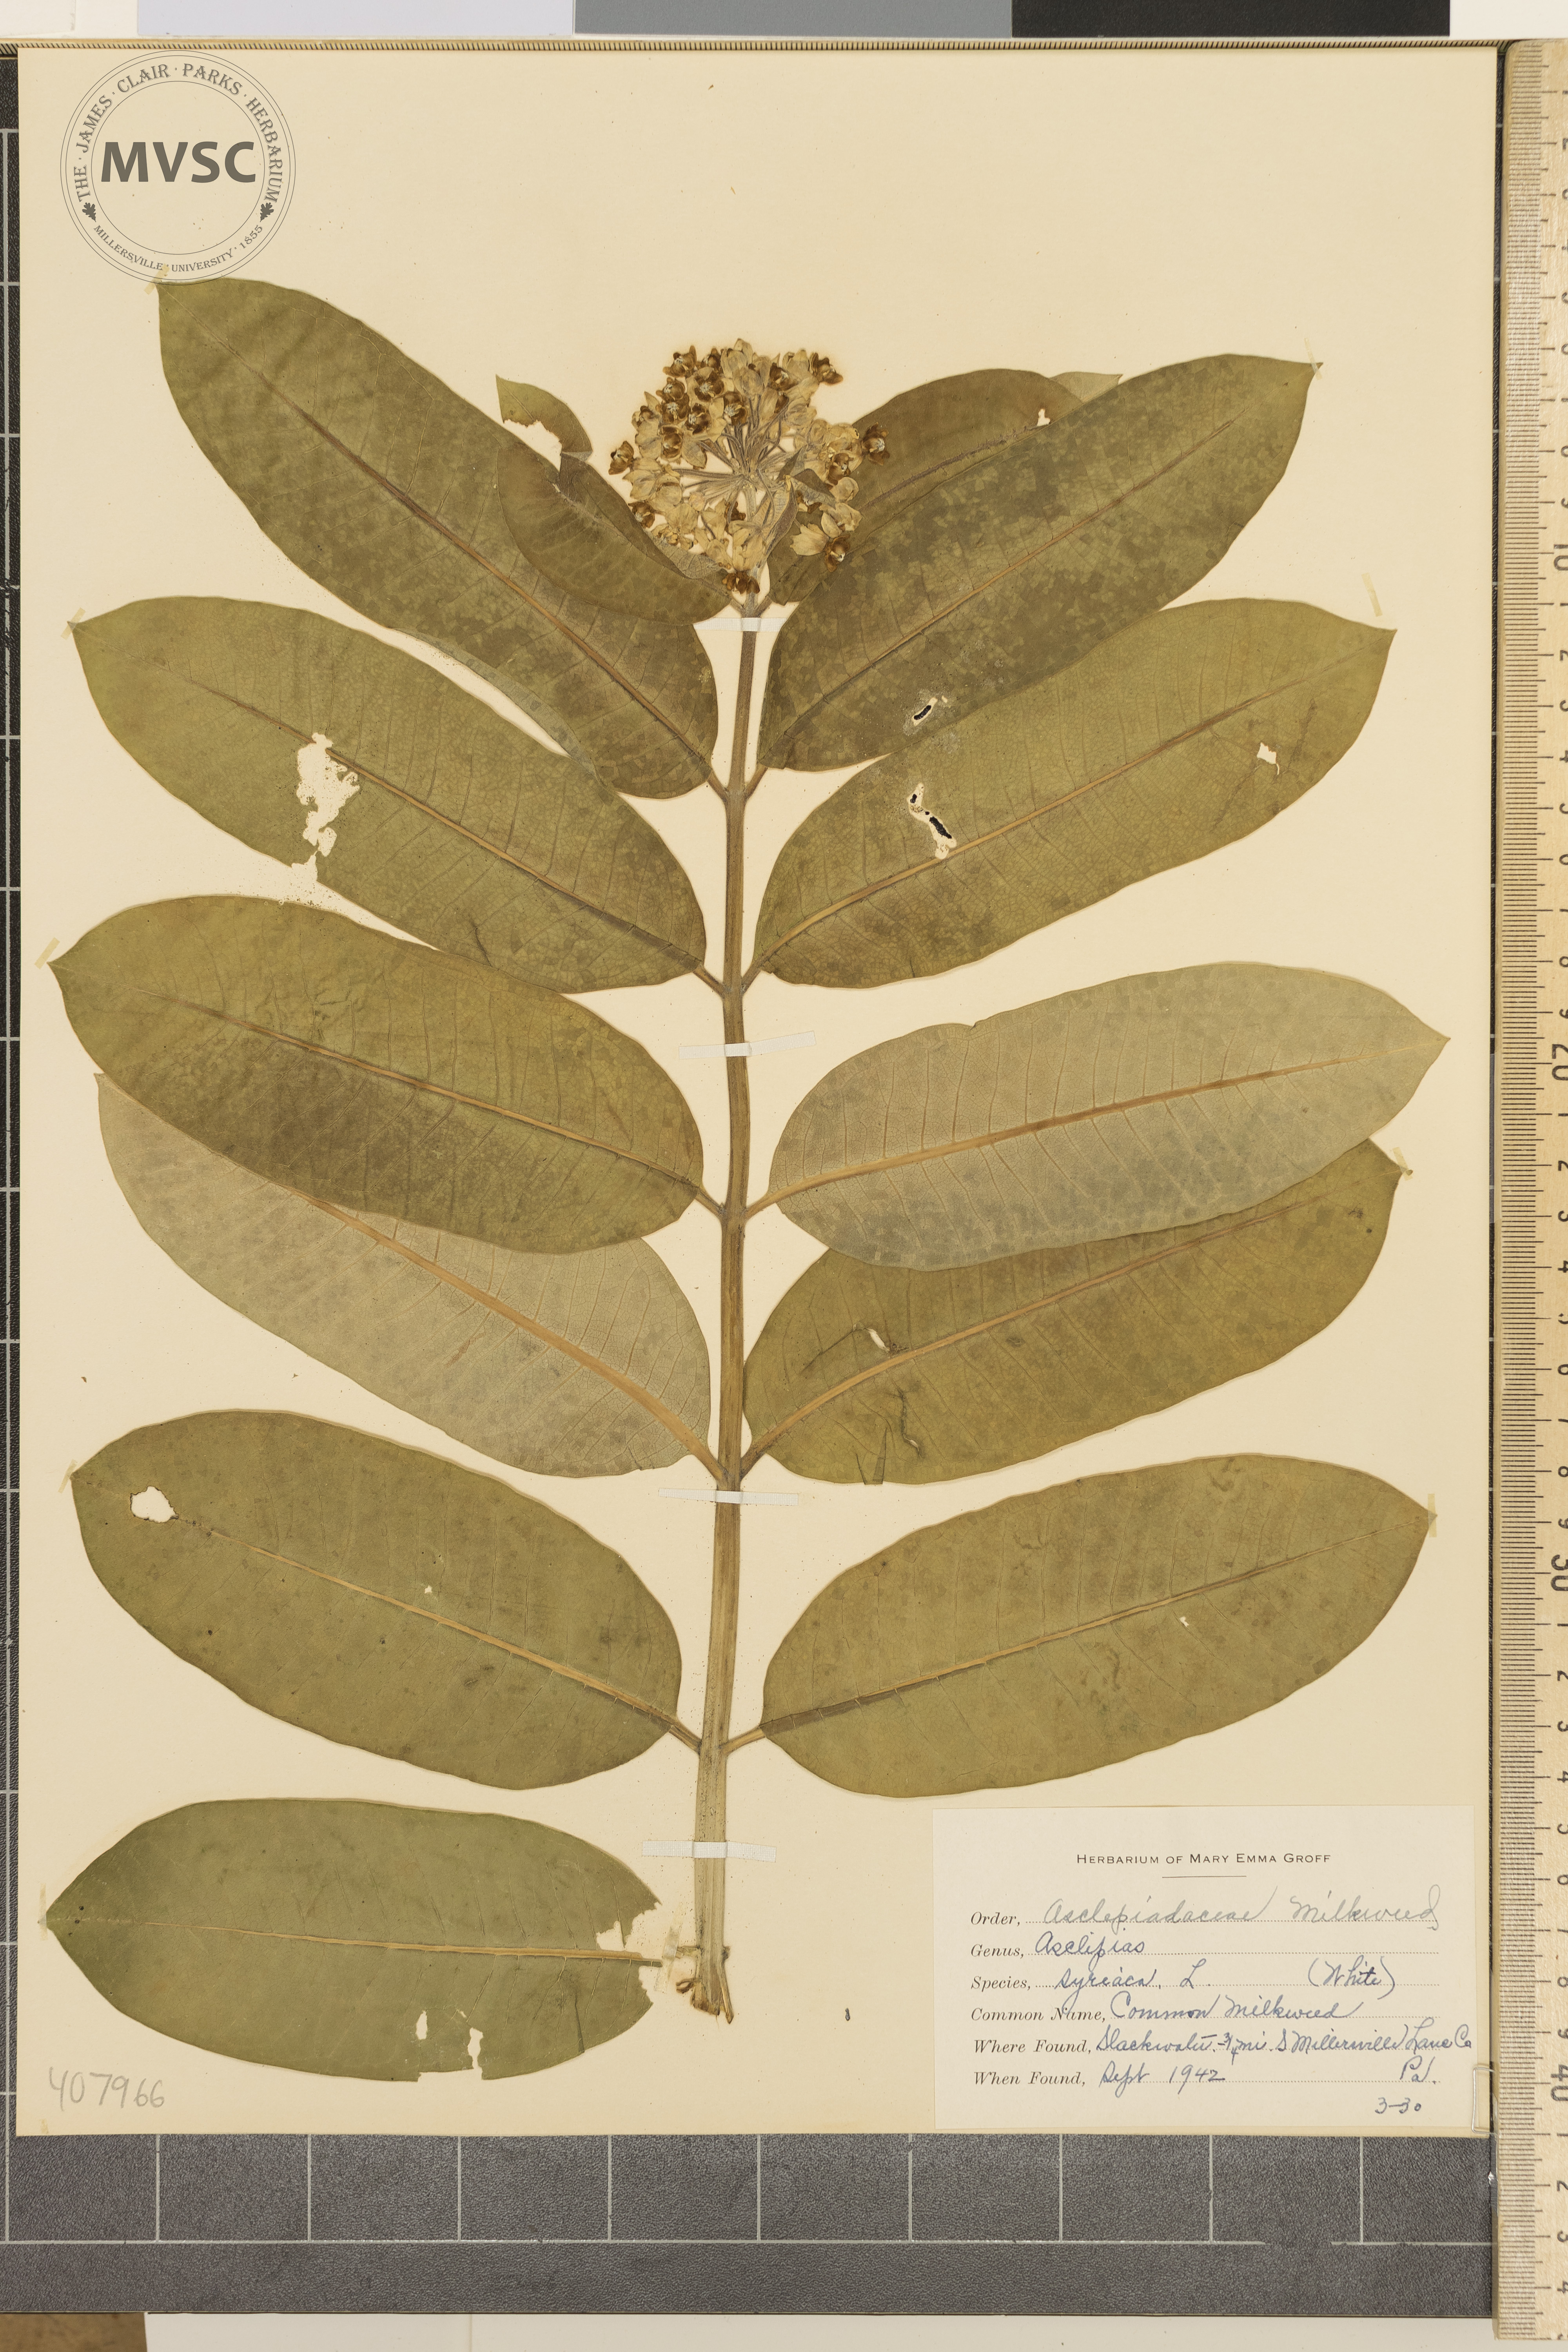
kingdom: Plantae
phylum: Tracheophyta
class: Magnoliopsida
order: Gentianales
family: Apocynaceae
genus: Asclepias
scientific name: Asclepias syriaca
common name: Common Milkweed
